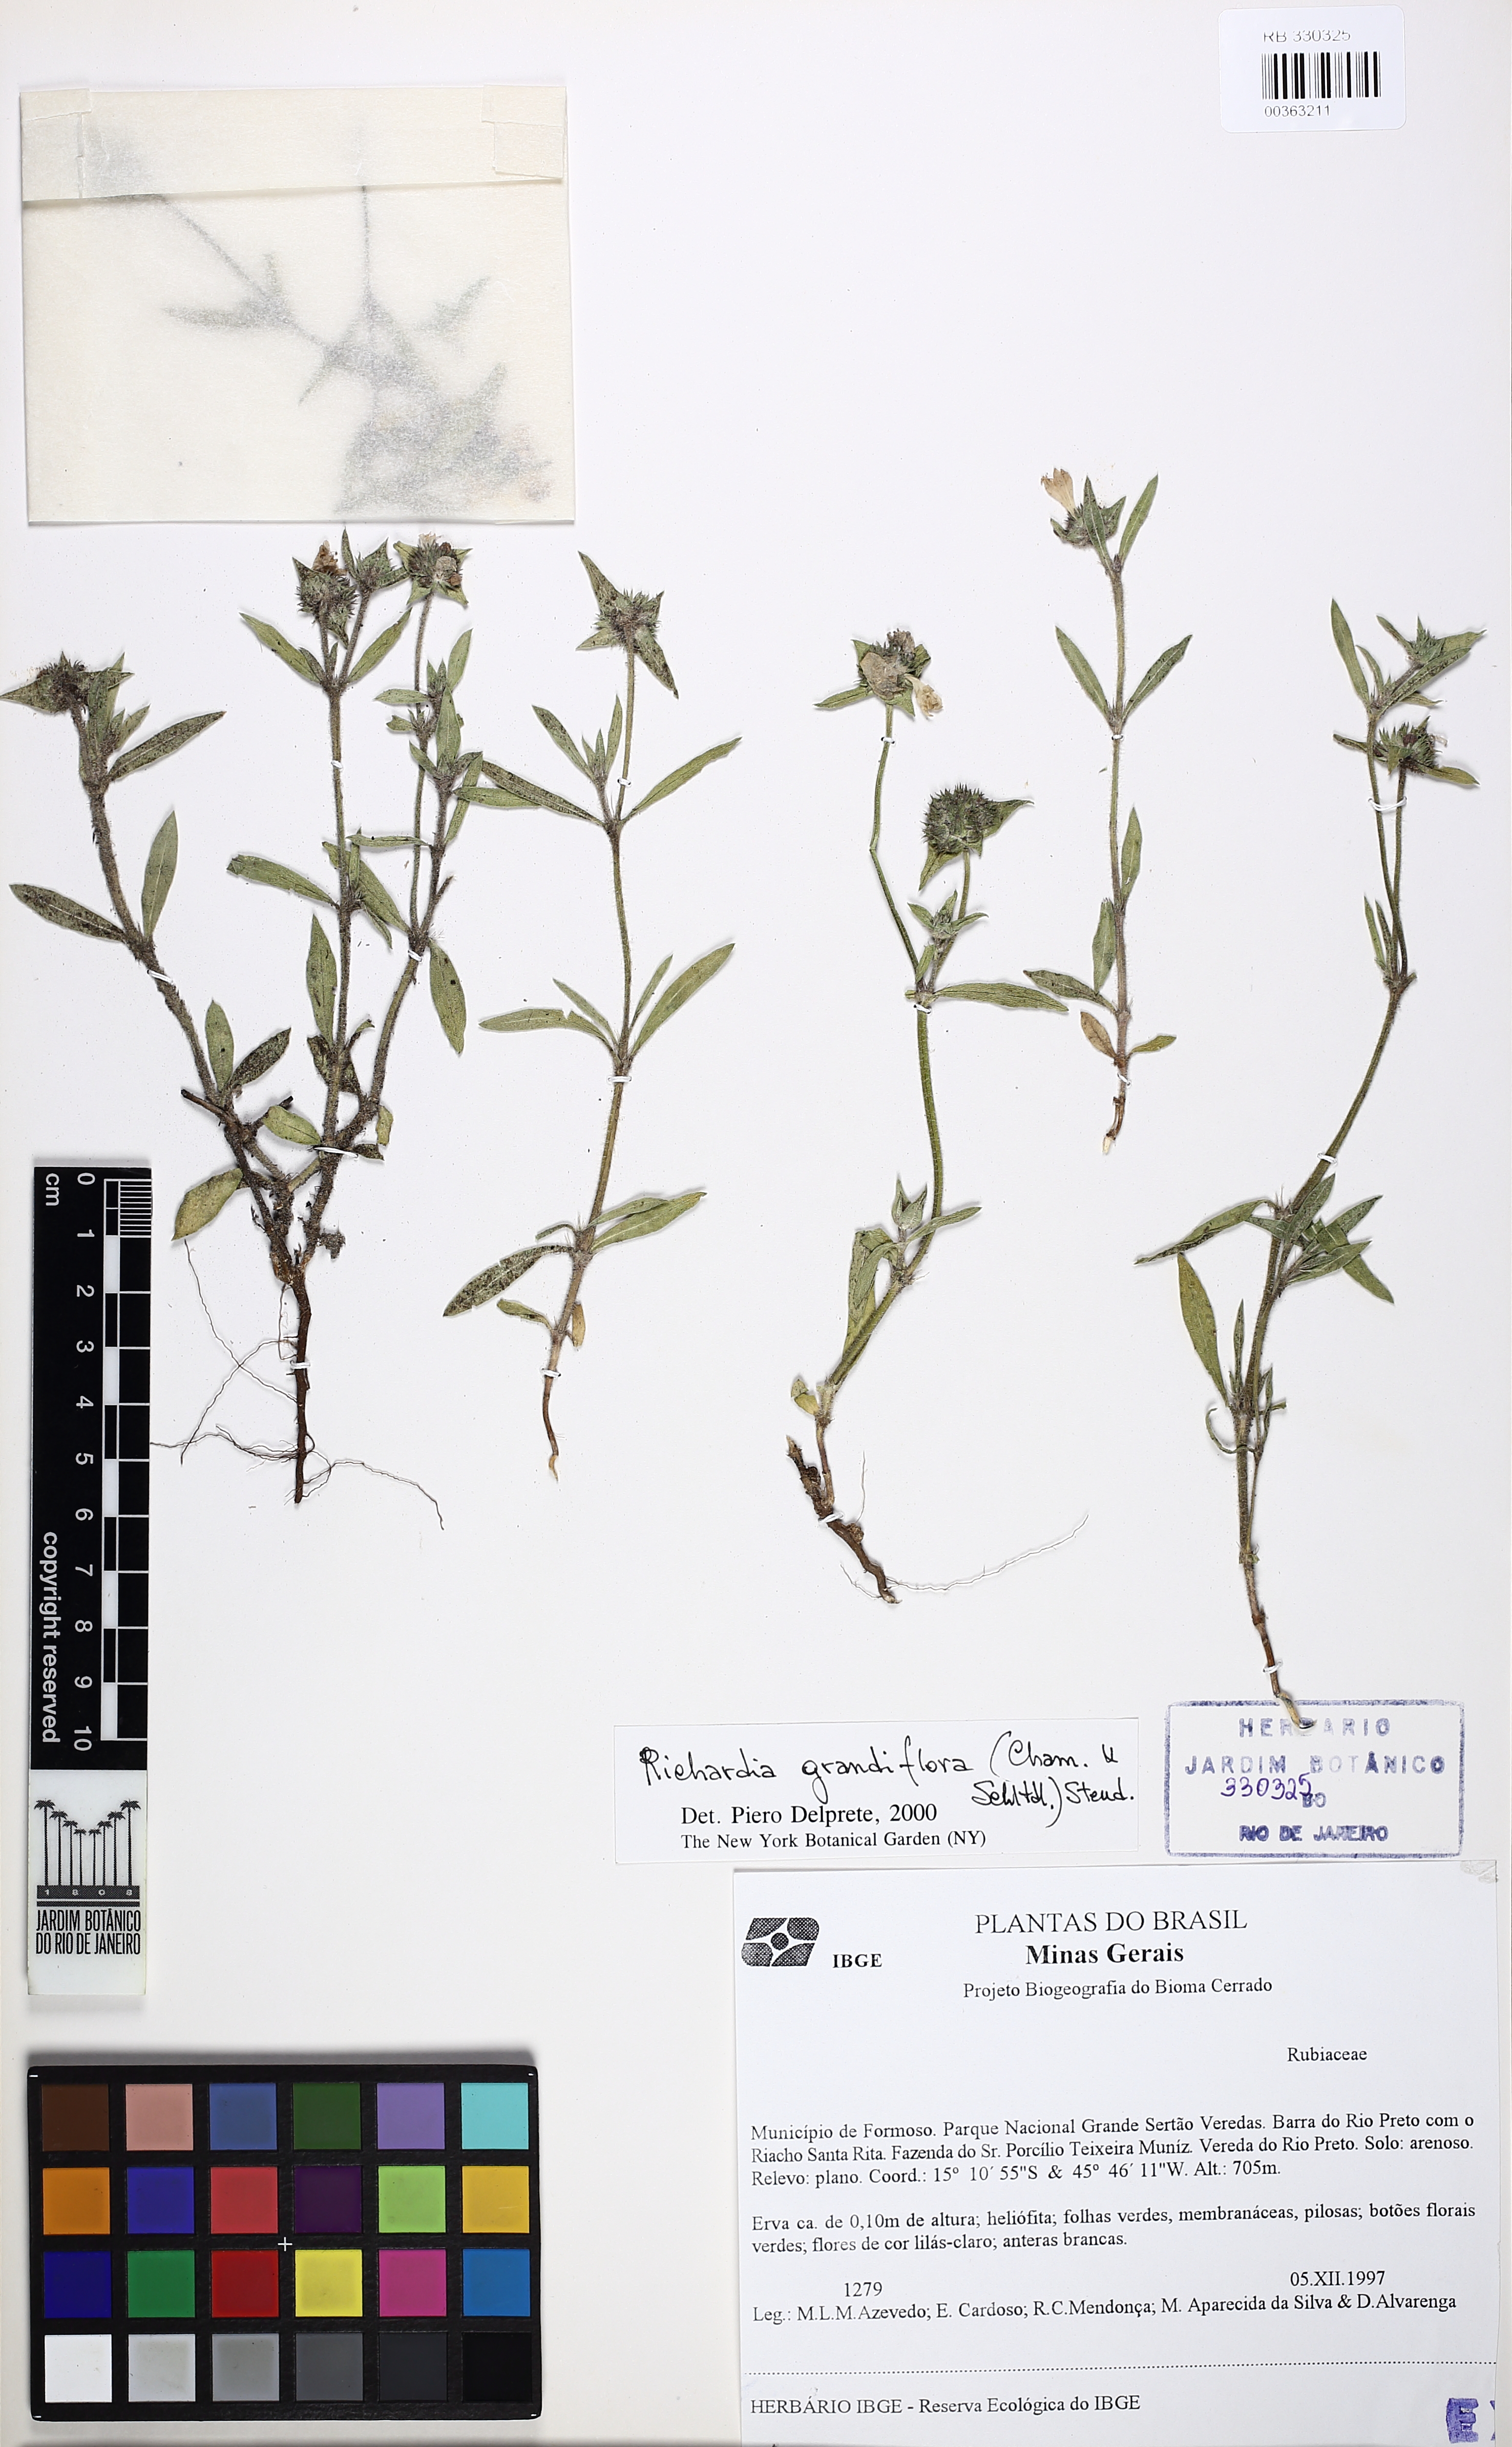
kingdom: Plantae
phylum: Tracheophyta
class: Magnoliopsida
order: Gentianales
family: Rubiaceae
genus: Richardia
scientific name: Richardia grandiflora
